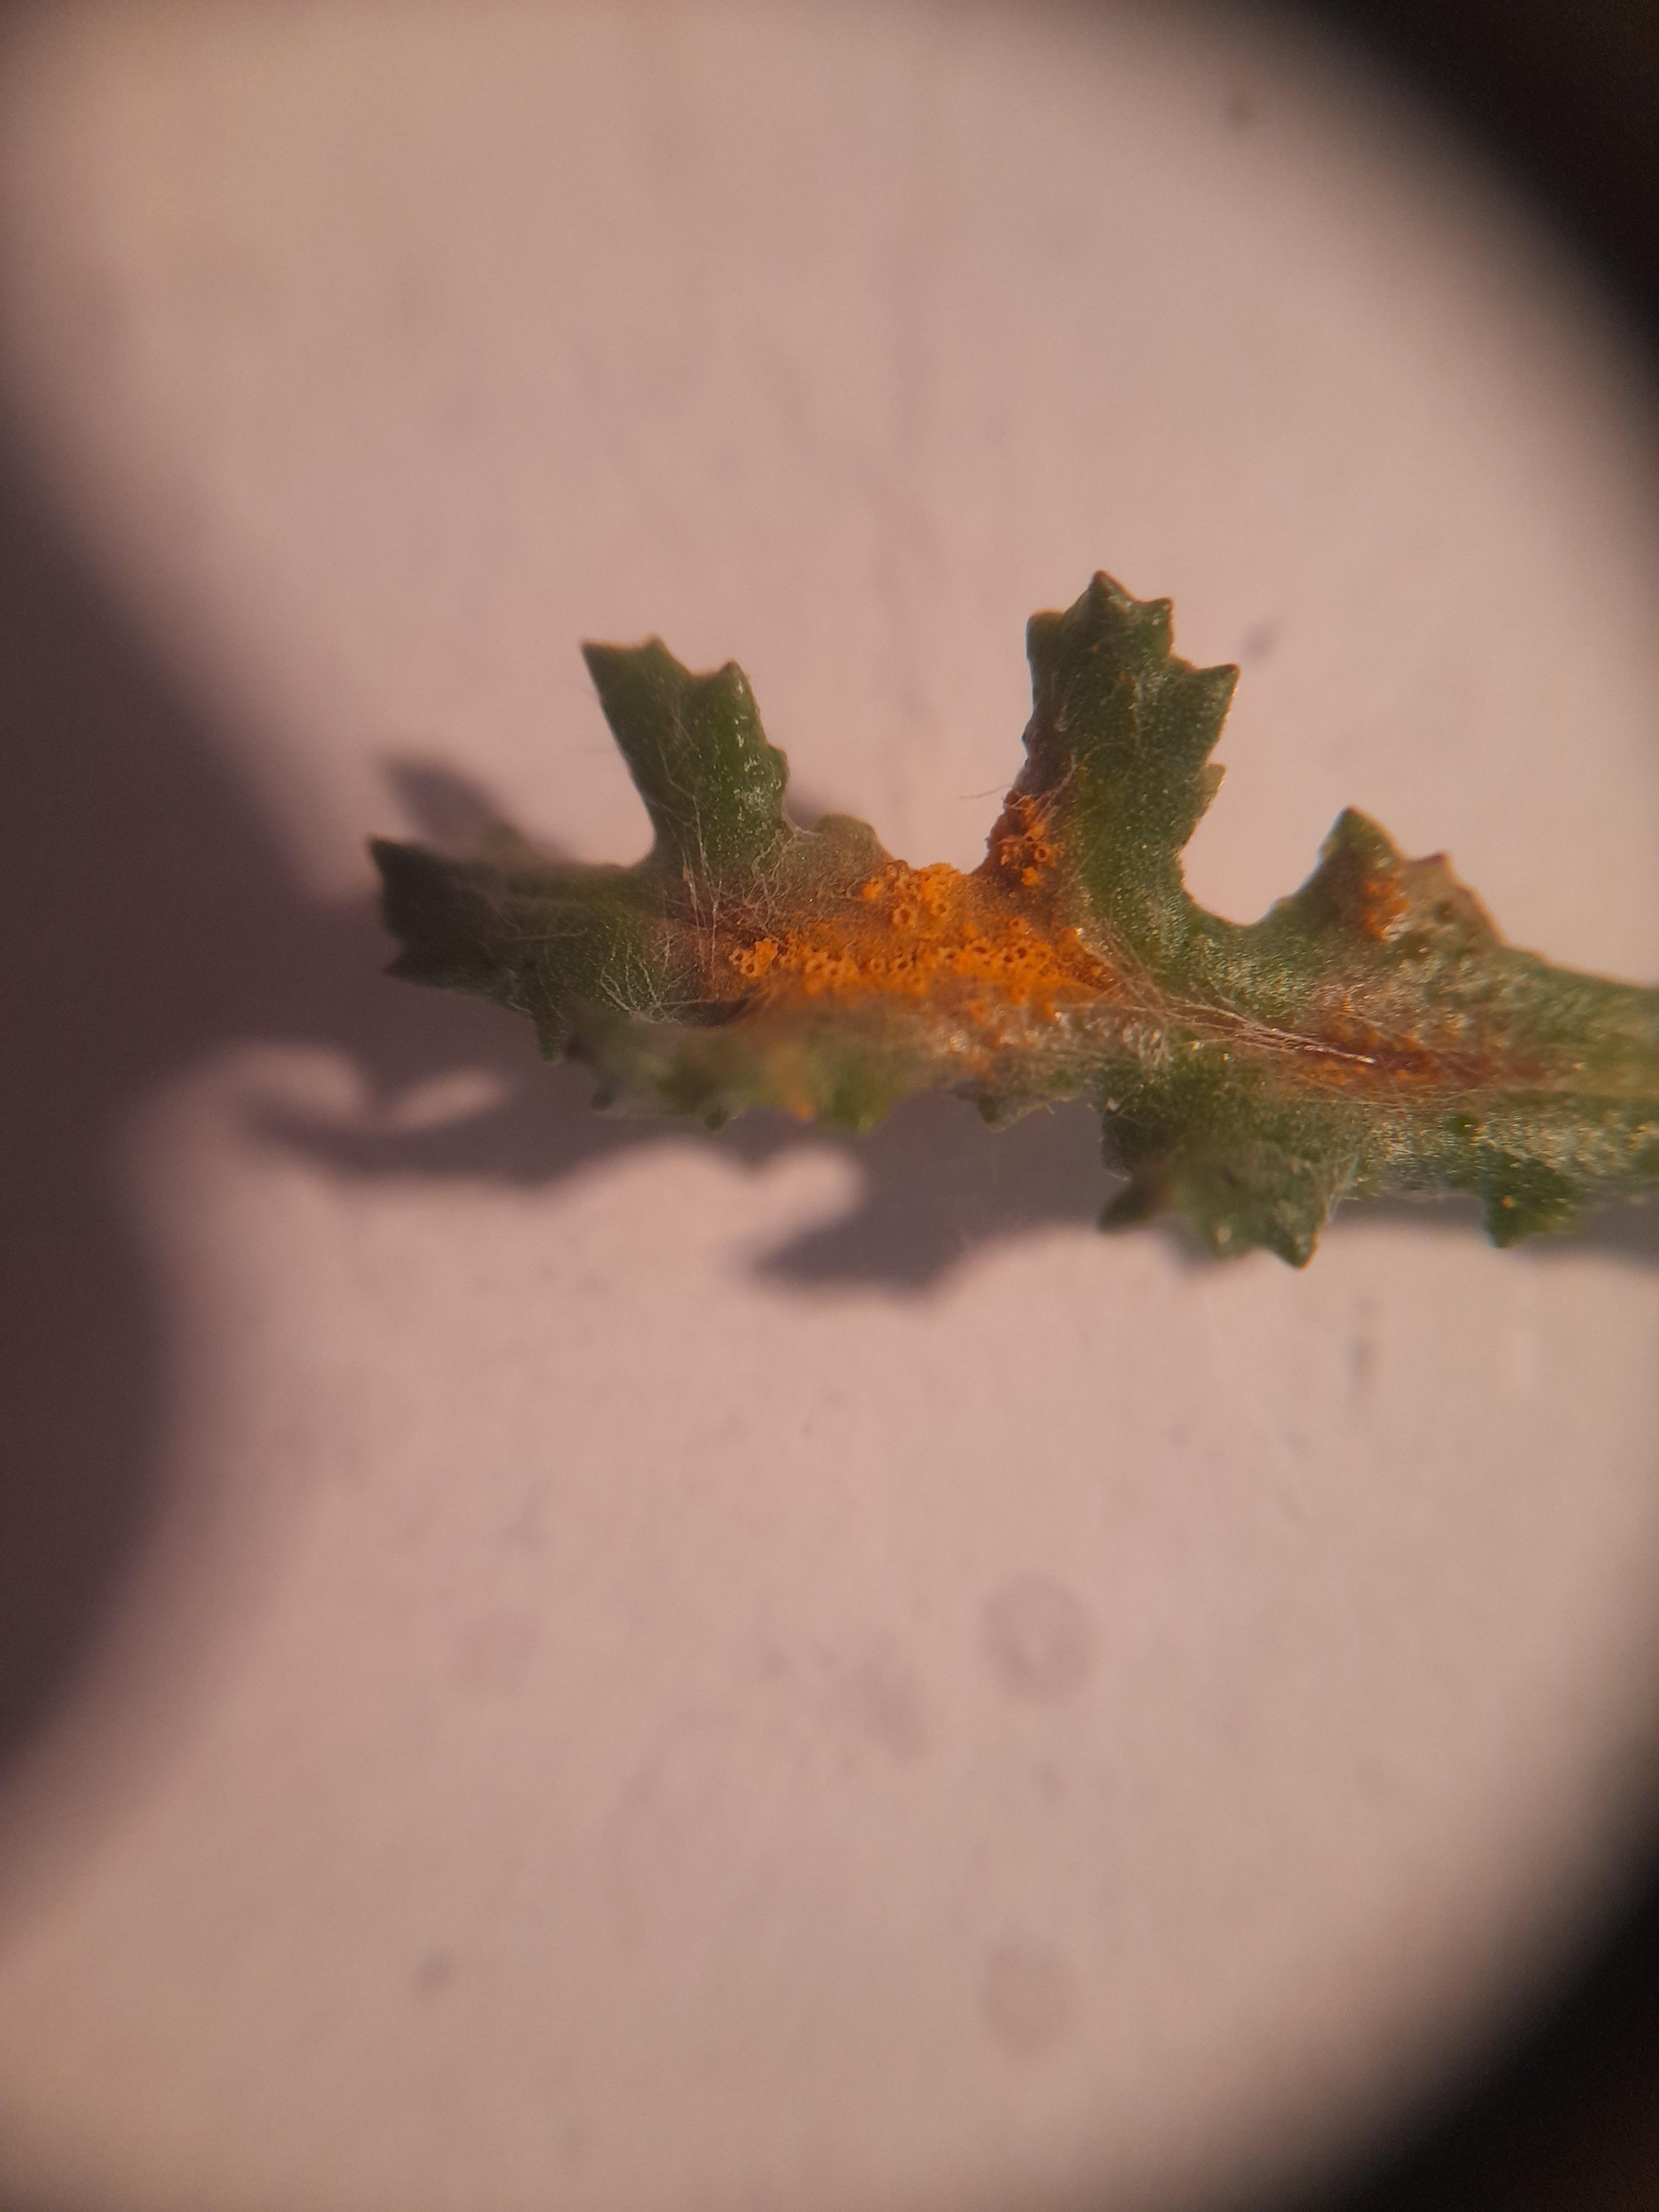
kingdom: Fungi
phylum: Basidiomycota
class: Pucciniomycetes
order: Pucciniales
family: Pucciniaceae
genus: Puccinia
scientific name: Puccinia lagenophorae
